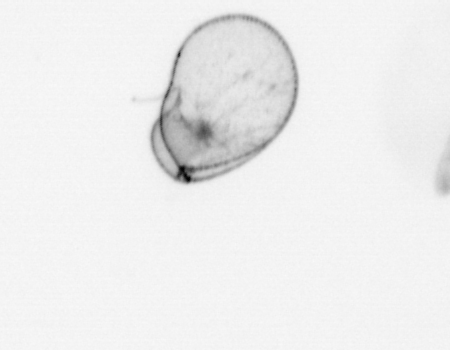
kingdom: Chromista
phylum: Myzozoa
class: Dinophyceae
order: Noctilucales
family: Noctilucaceae
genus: Noctiluca
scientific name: Noctiluca scintillans
